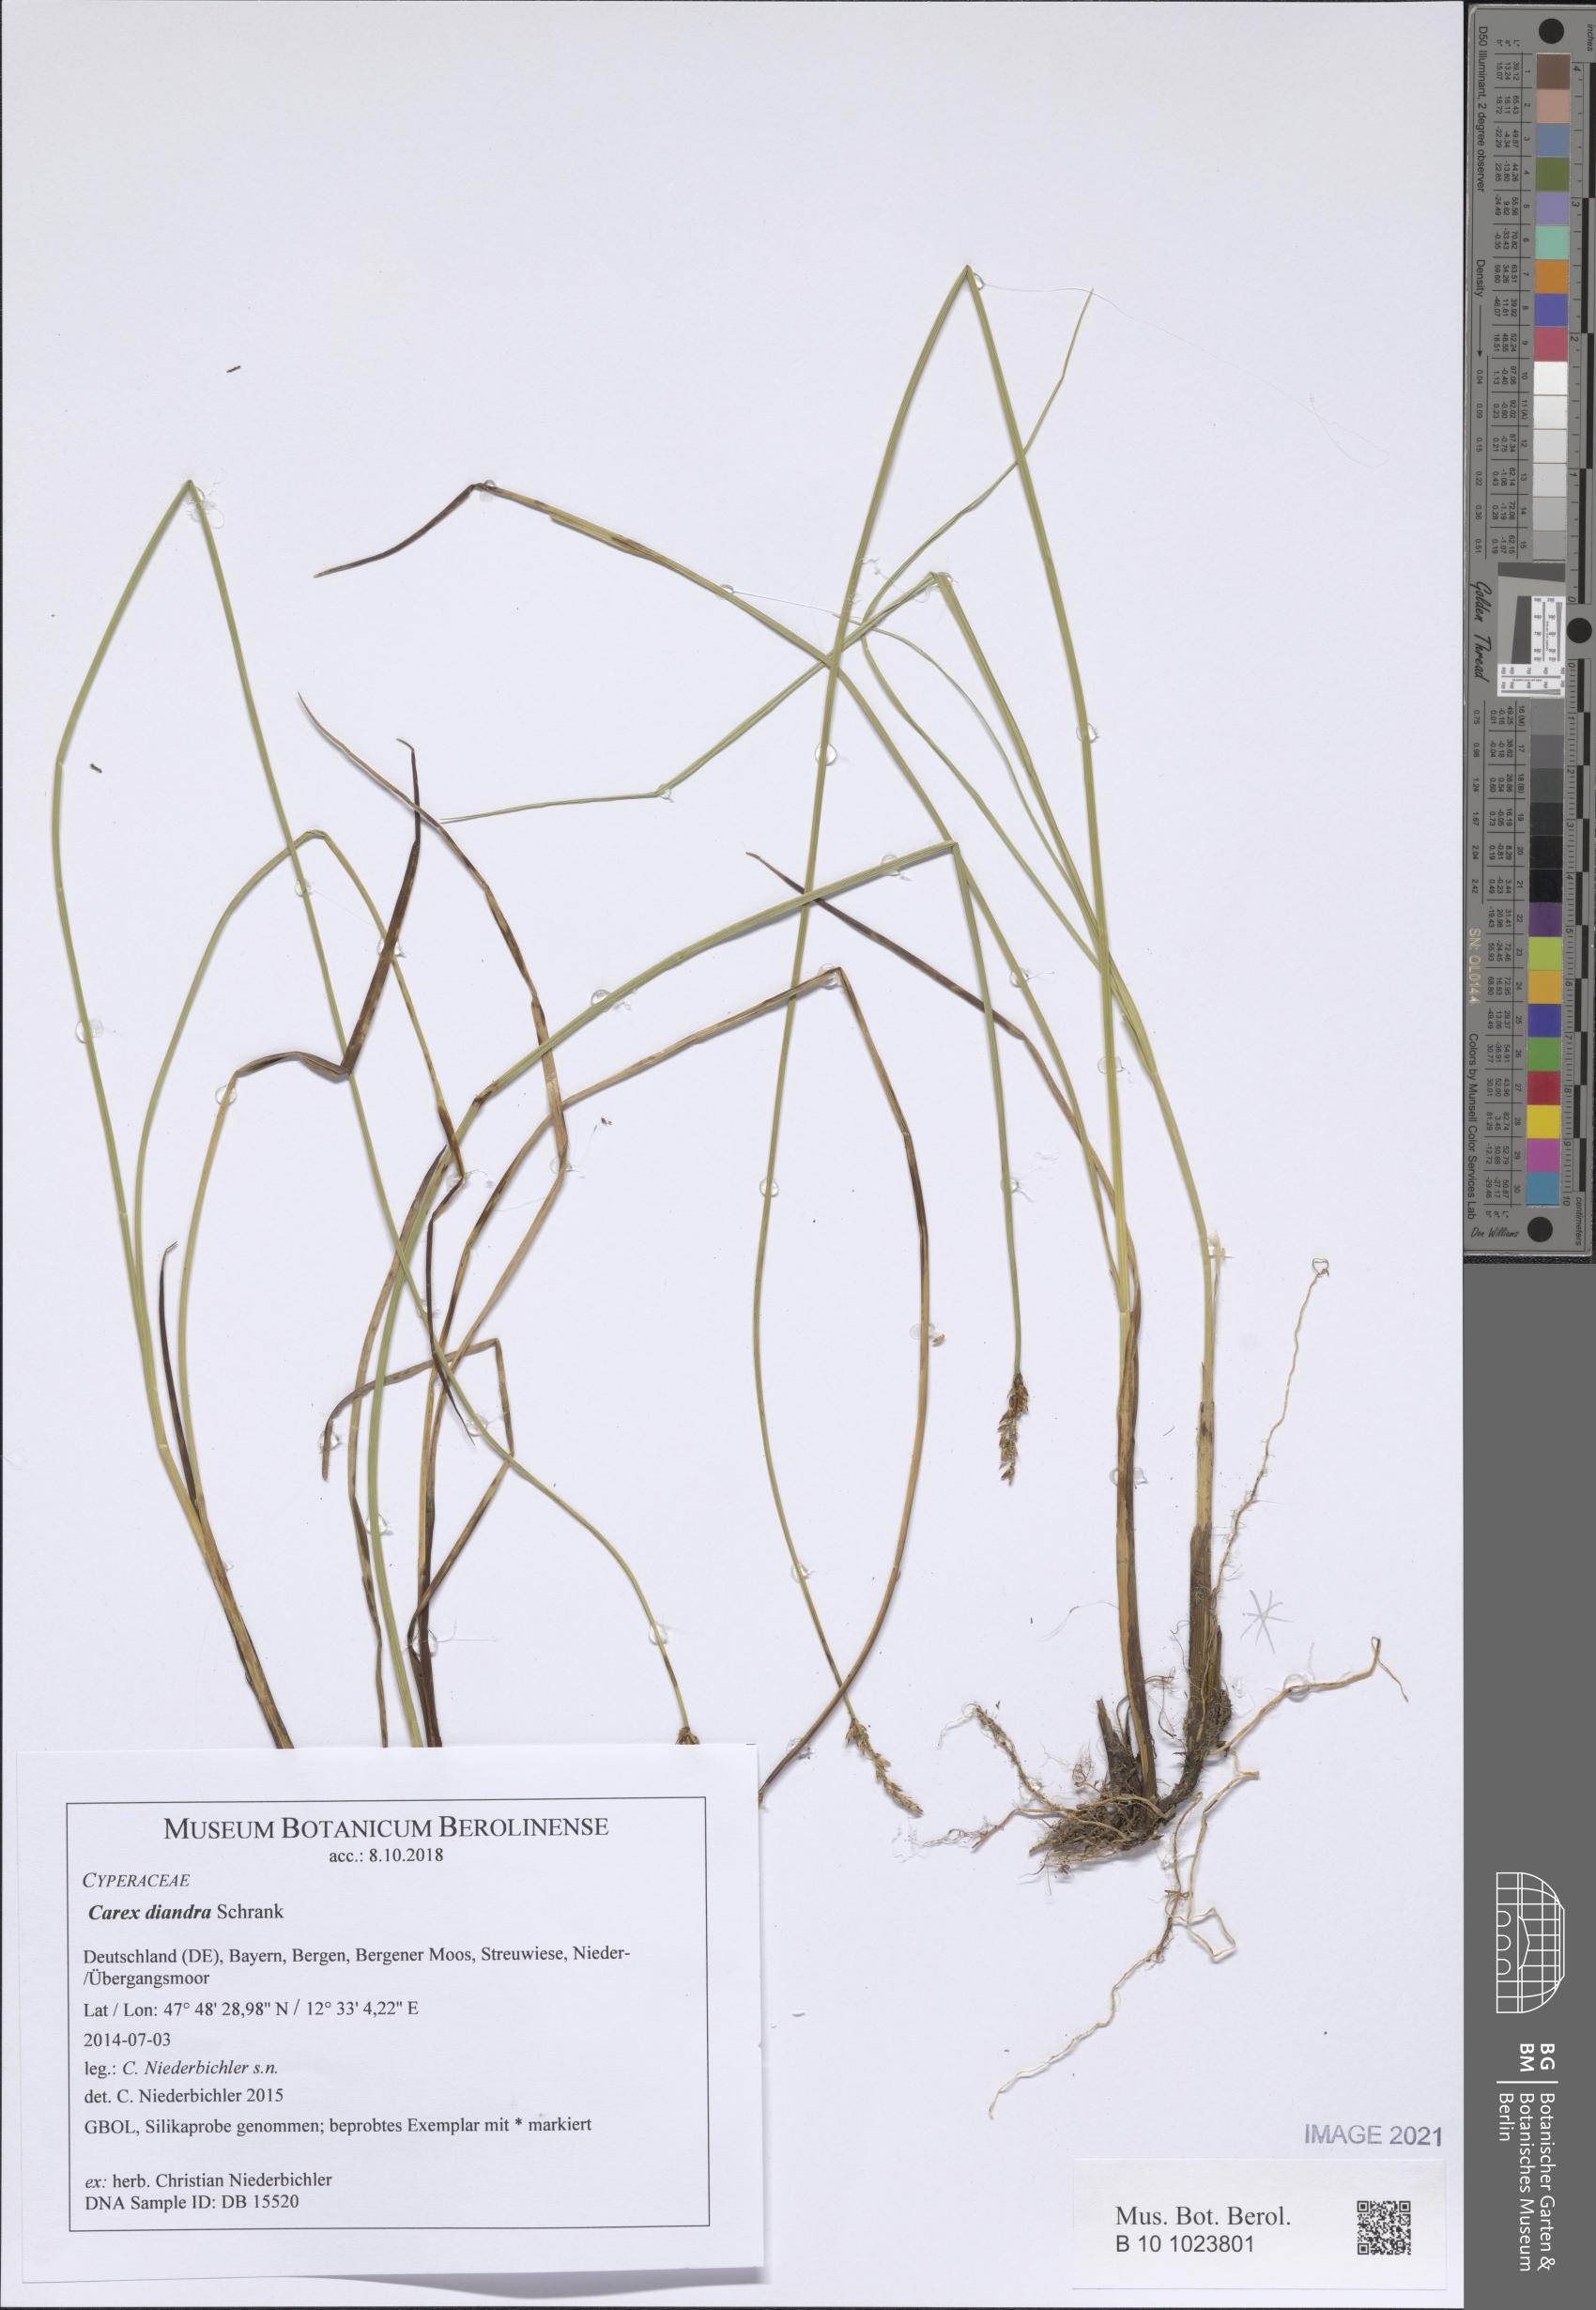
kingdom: Plantae
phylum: Tracheophyta
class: Liliopsida
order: Poales
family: Cyperaceae
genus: Carex
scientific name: Carex diandra
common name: Lesser tussock-sedge
